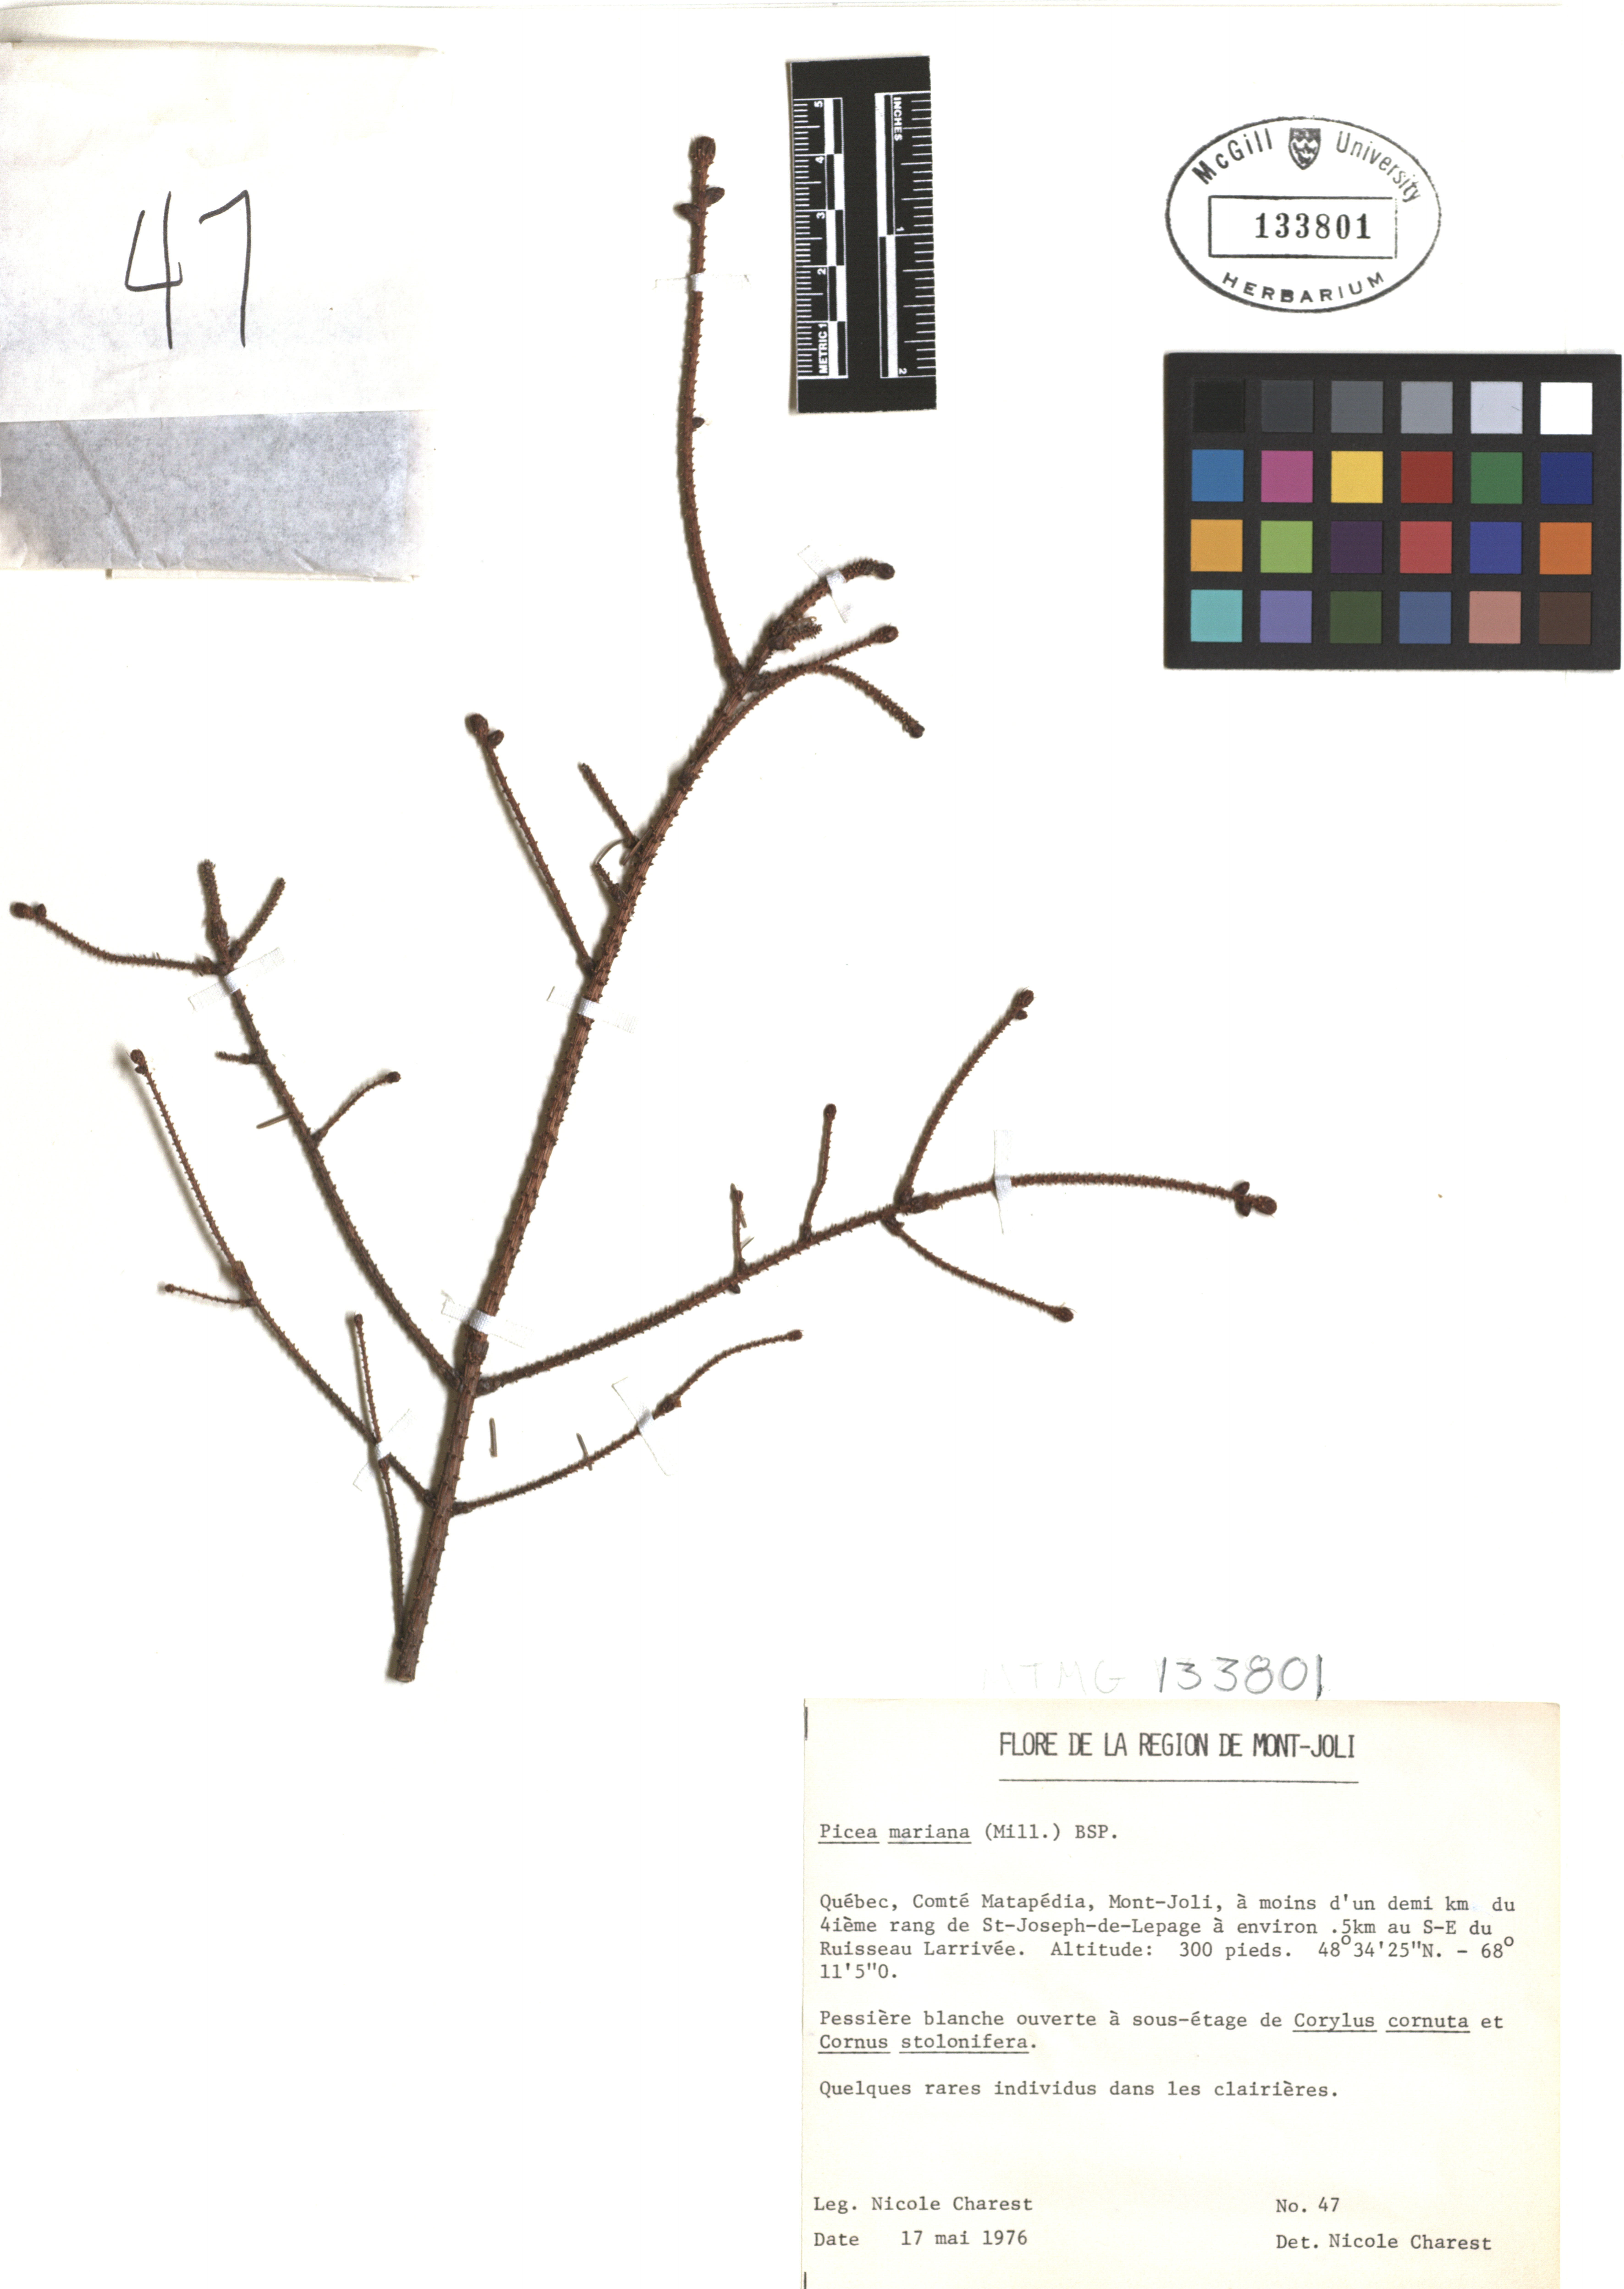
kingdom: Plantae
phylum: Tracheophyta
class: Pinopsida
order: Pinales
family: Pinaceae
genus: Picea
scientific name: Picea mariana
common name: Black spruce
